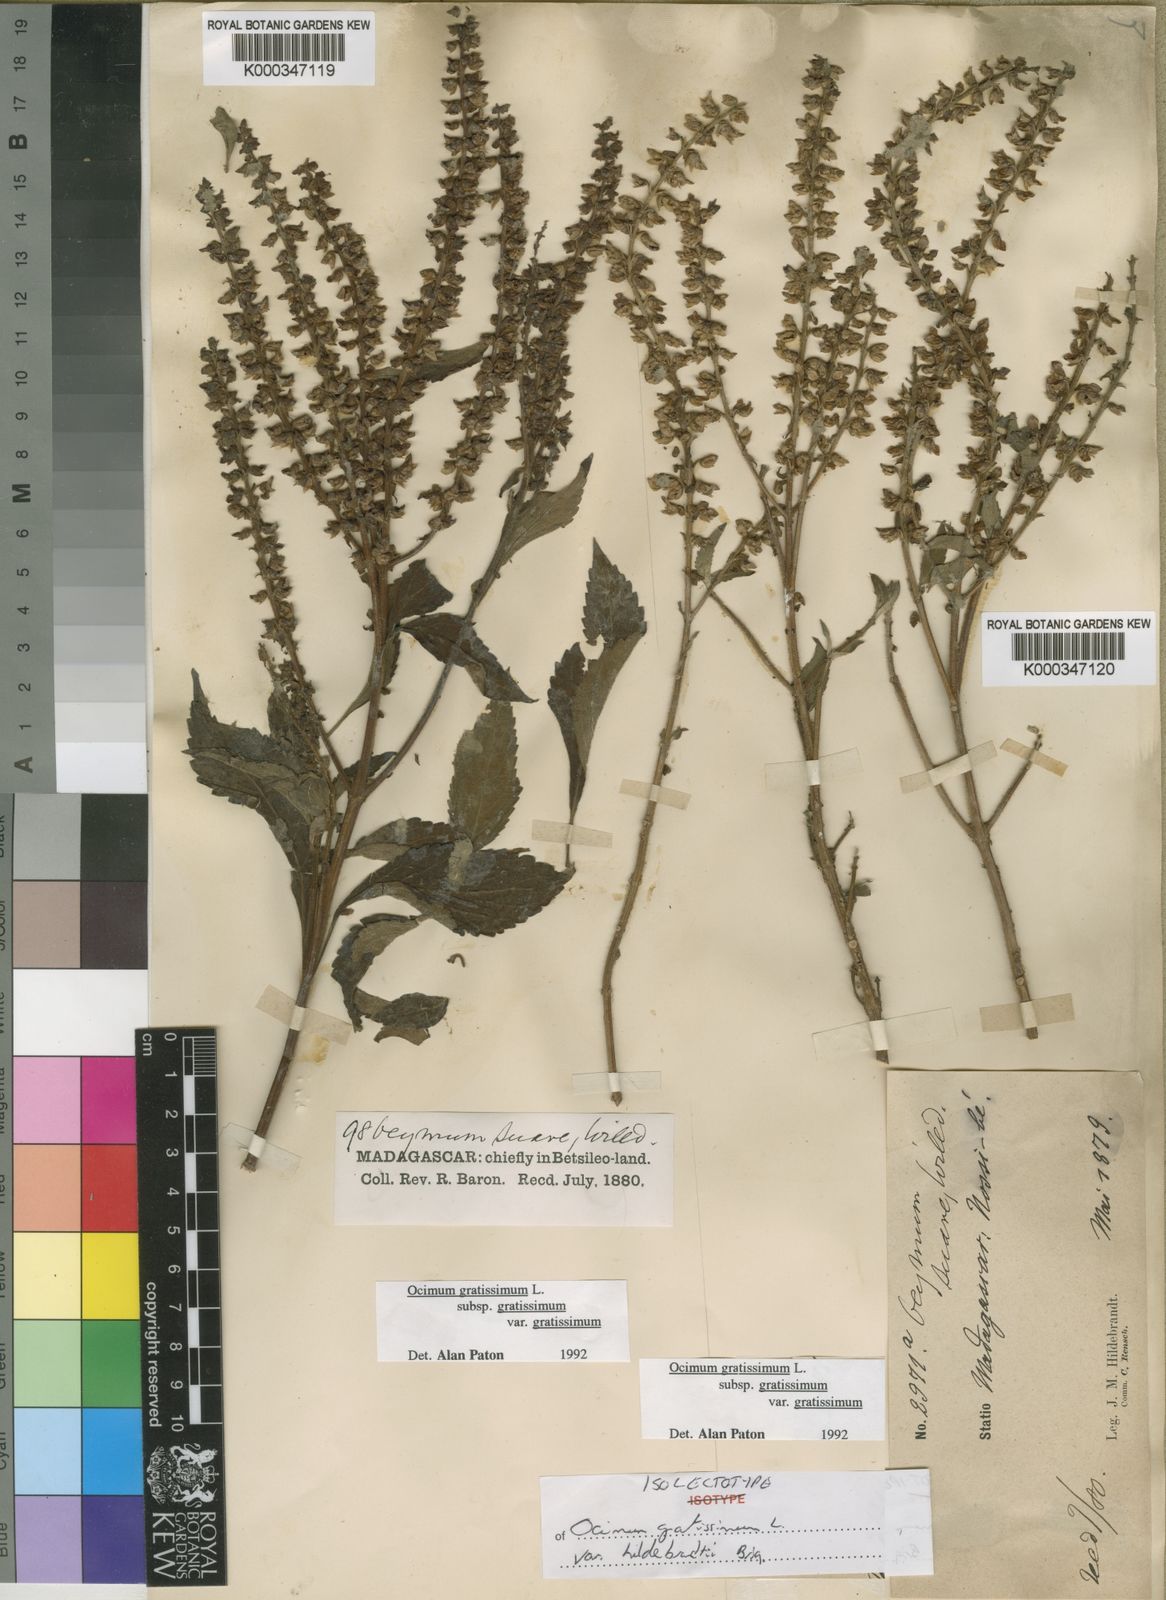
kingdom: Plantae
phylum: Tracheophyta
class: Magnoliopsida
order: Lamiales
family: Lamiaceae
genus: Ocimum
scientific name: Ocimum gratissimum
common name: African basil
